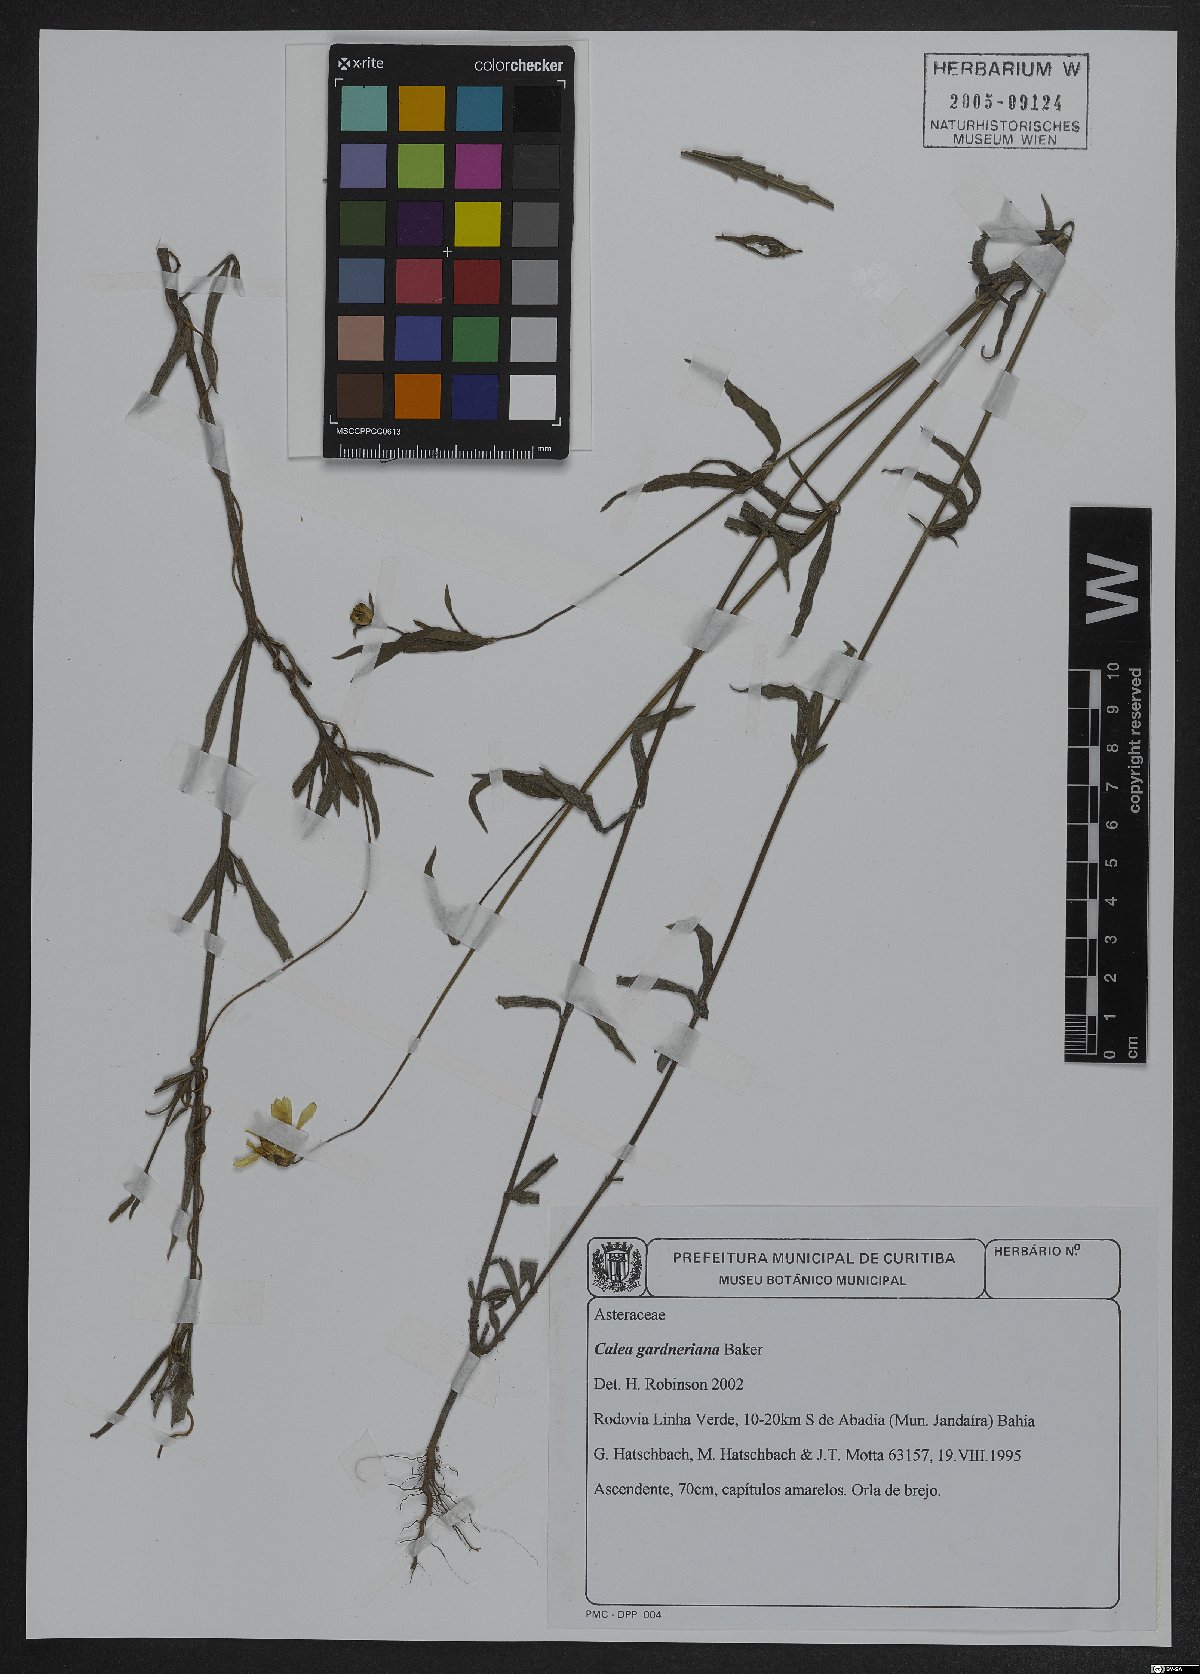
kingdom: Plantae
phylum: Tracheophyta
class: Magnoliopsida
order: Asterales
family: Asteraceae
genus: Calea
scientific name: Calea gardneriana
